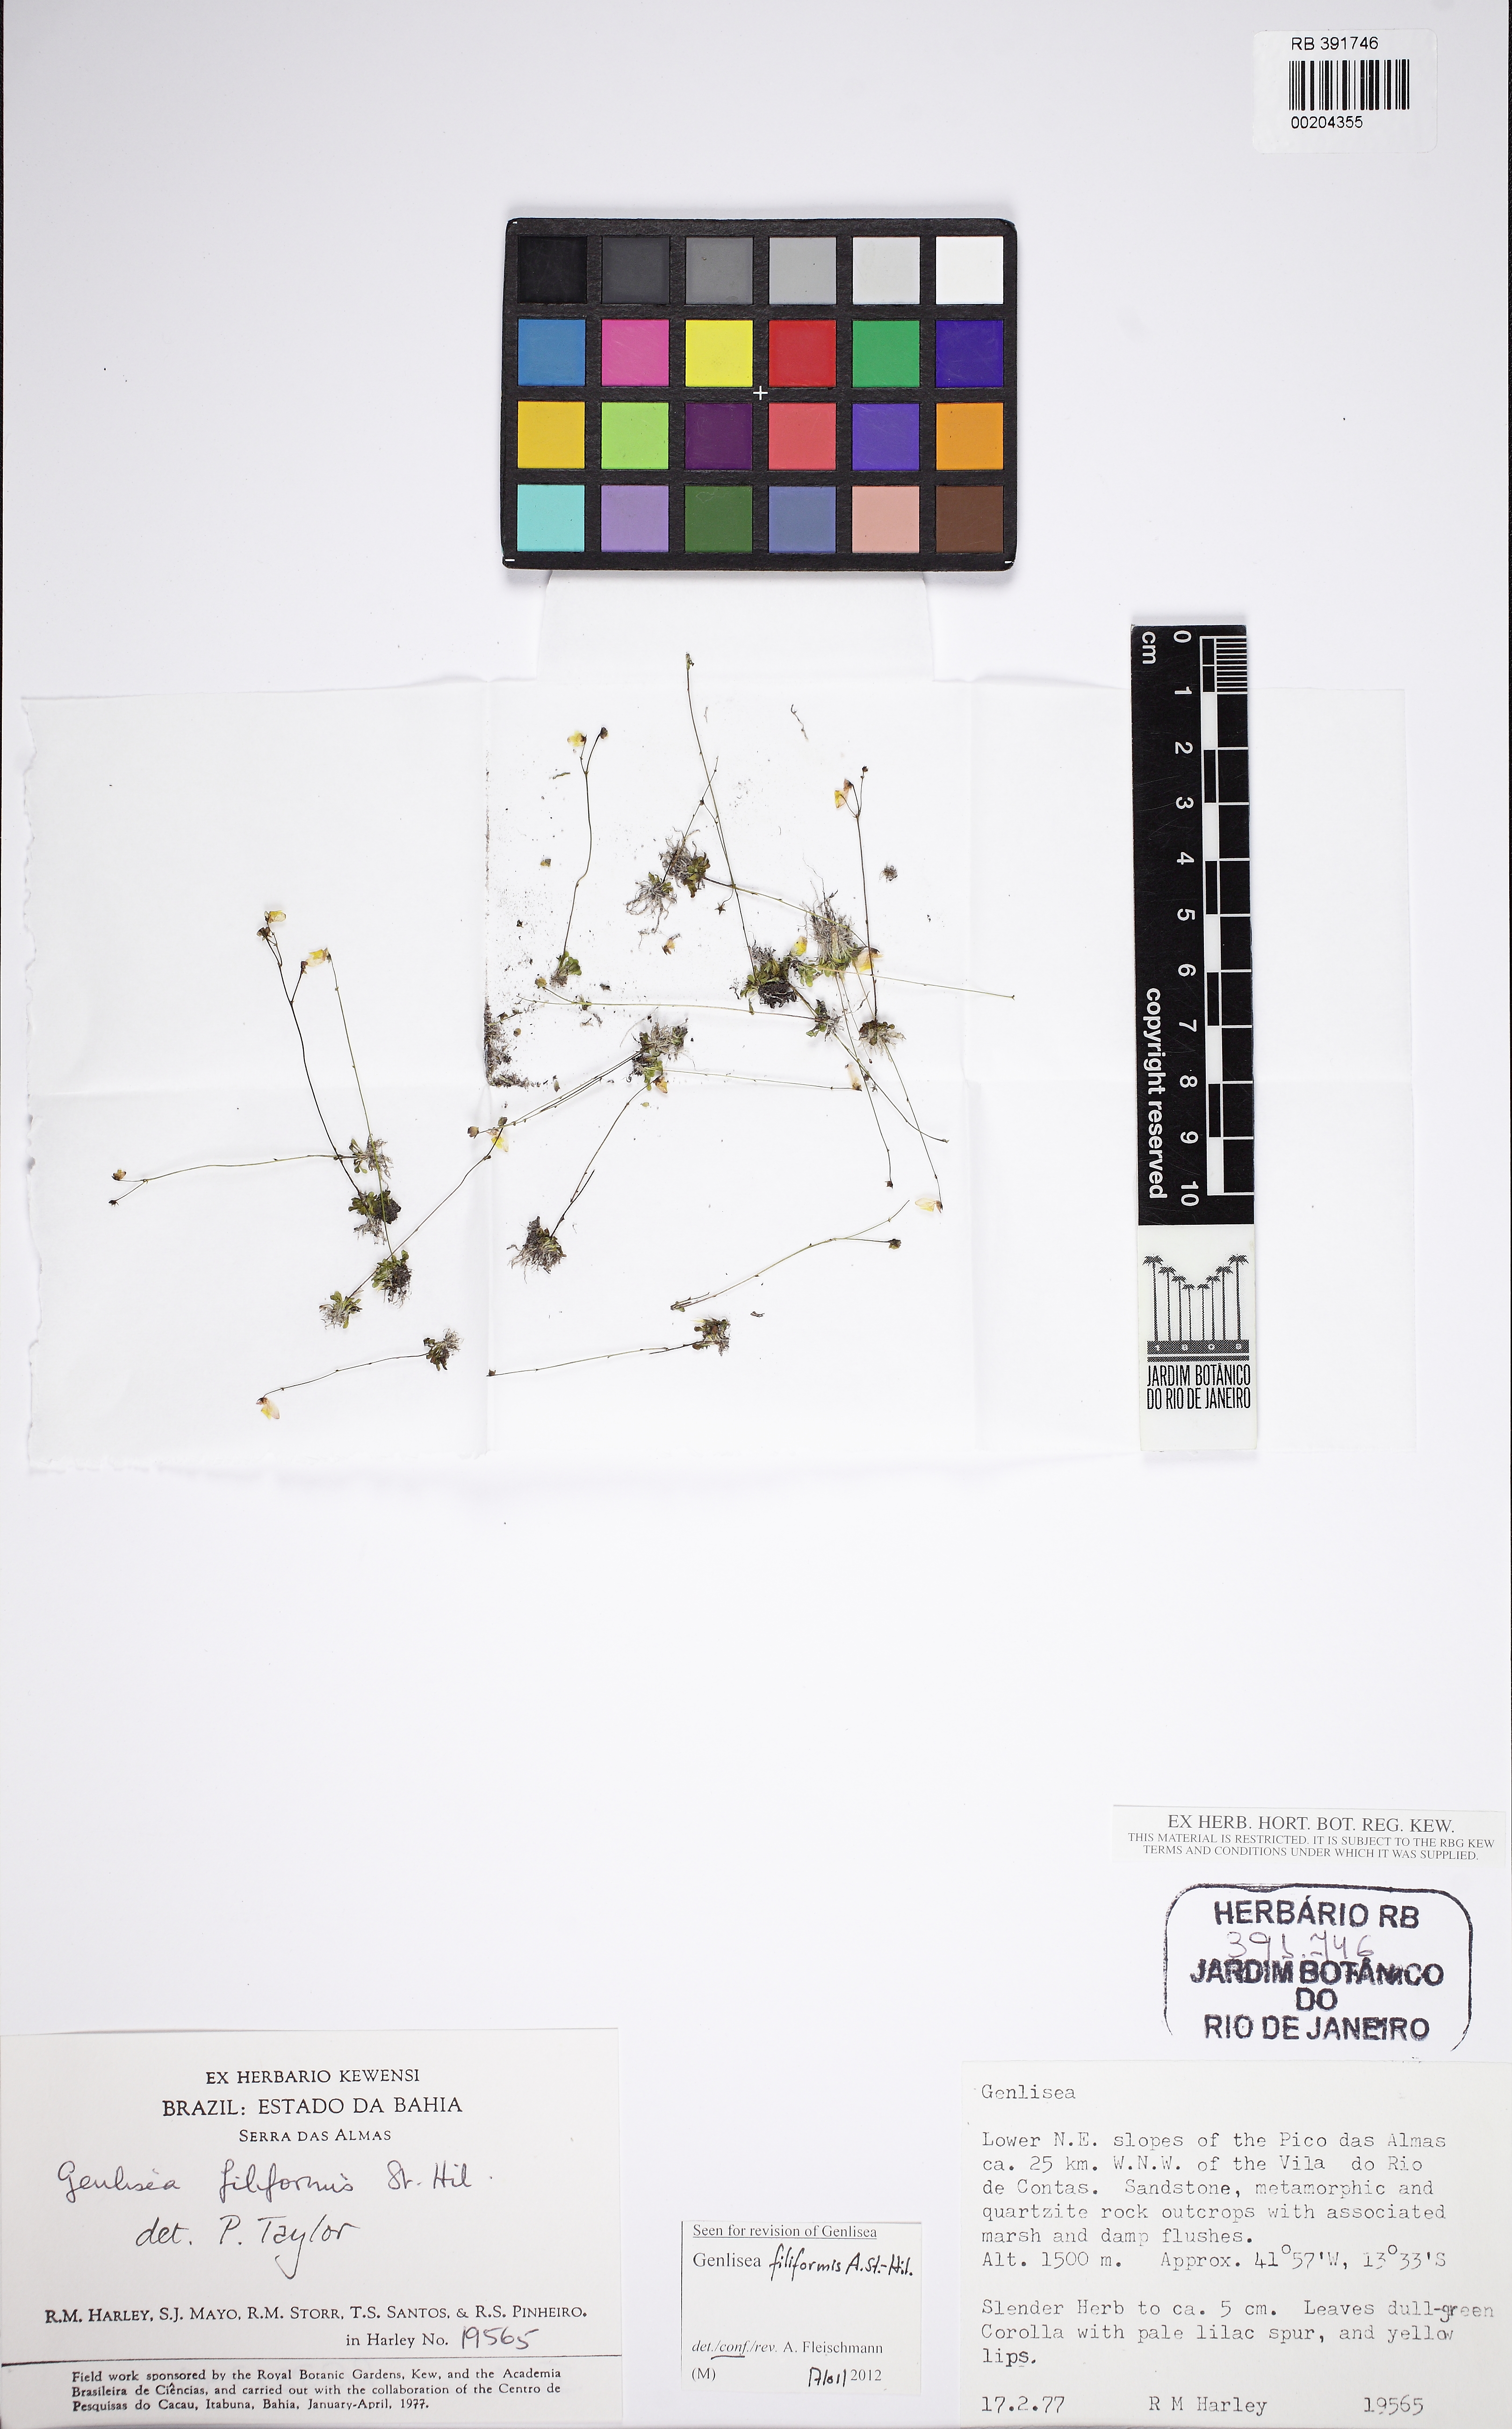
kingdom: Plantae
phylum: Tracheophyta
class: Magnoliopsida
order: Lamiales
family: Lentibulariaceae
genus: Genlisea
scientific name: Genlisea filiformis
